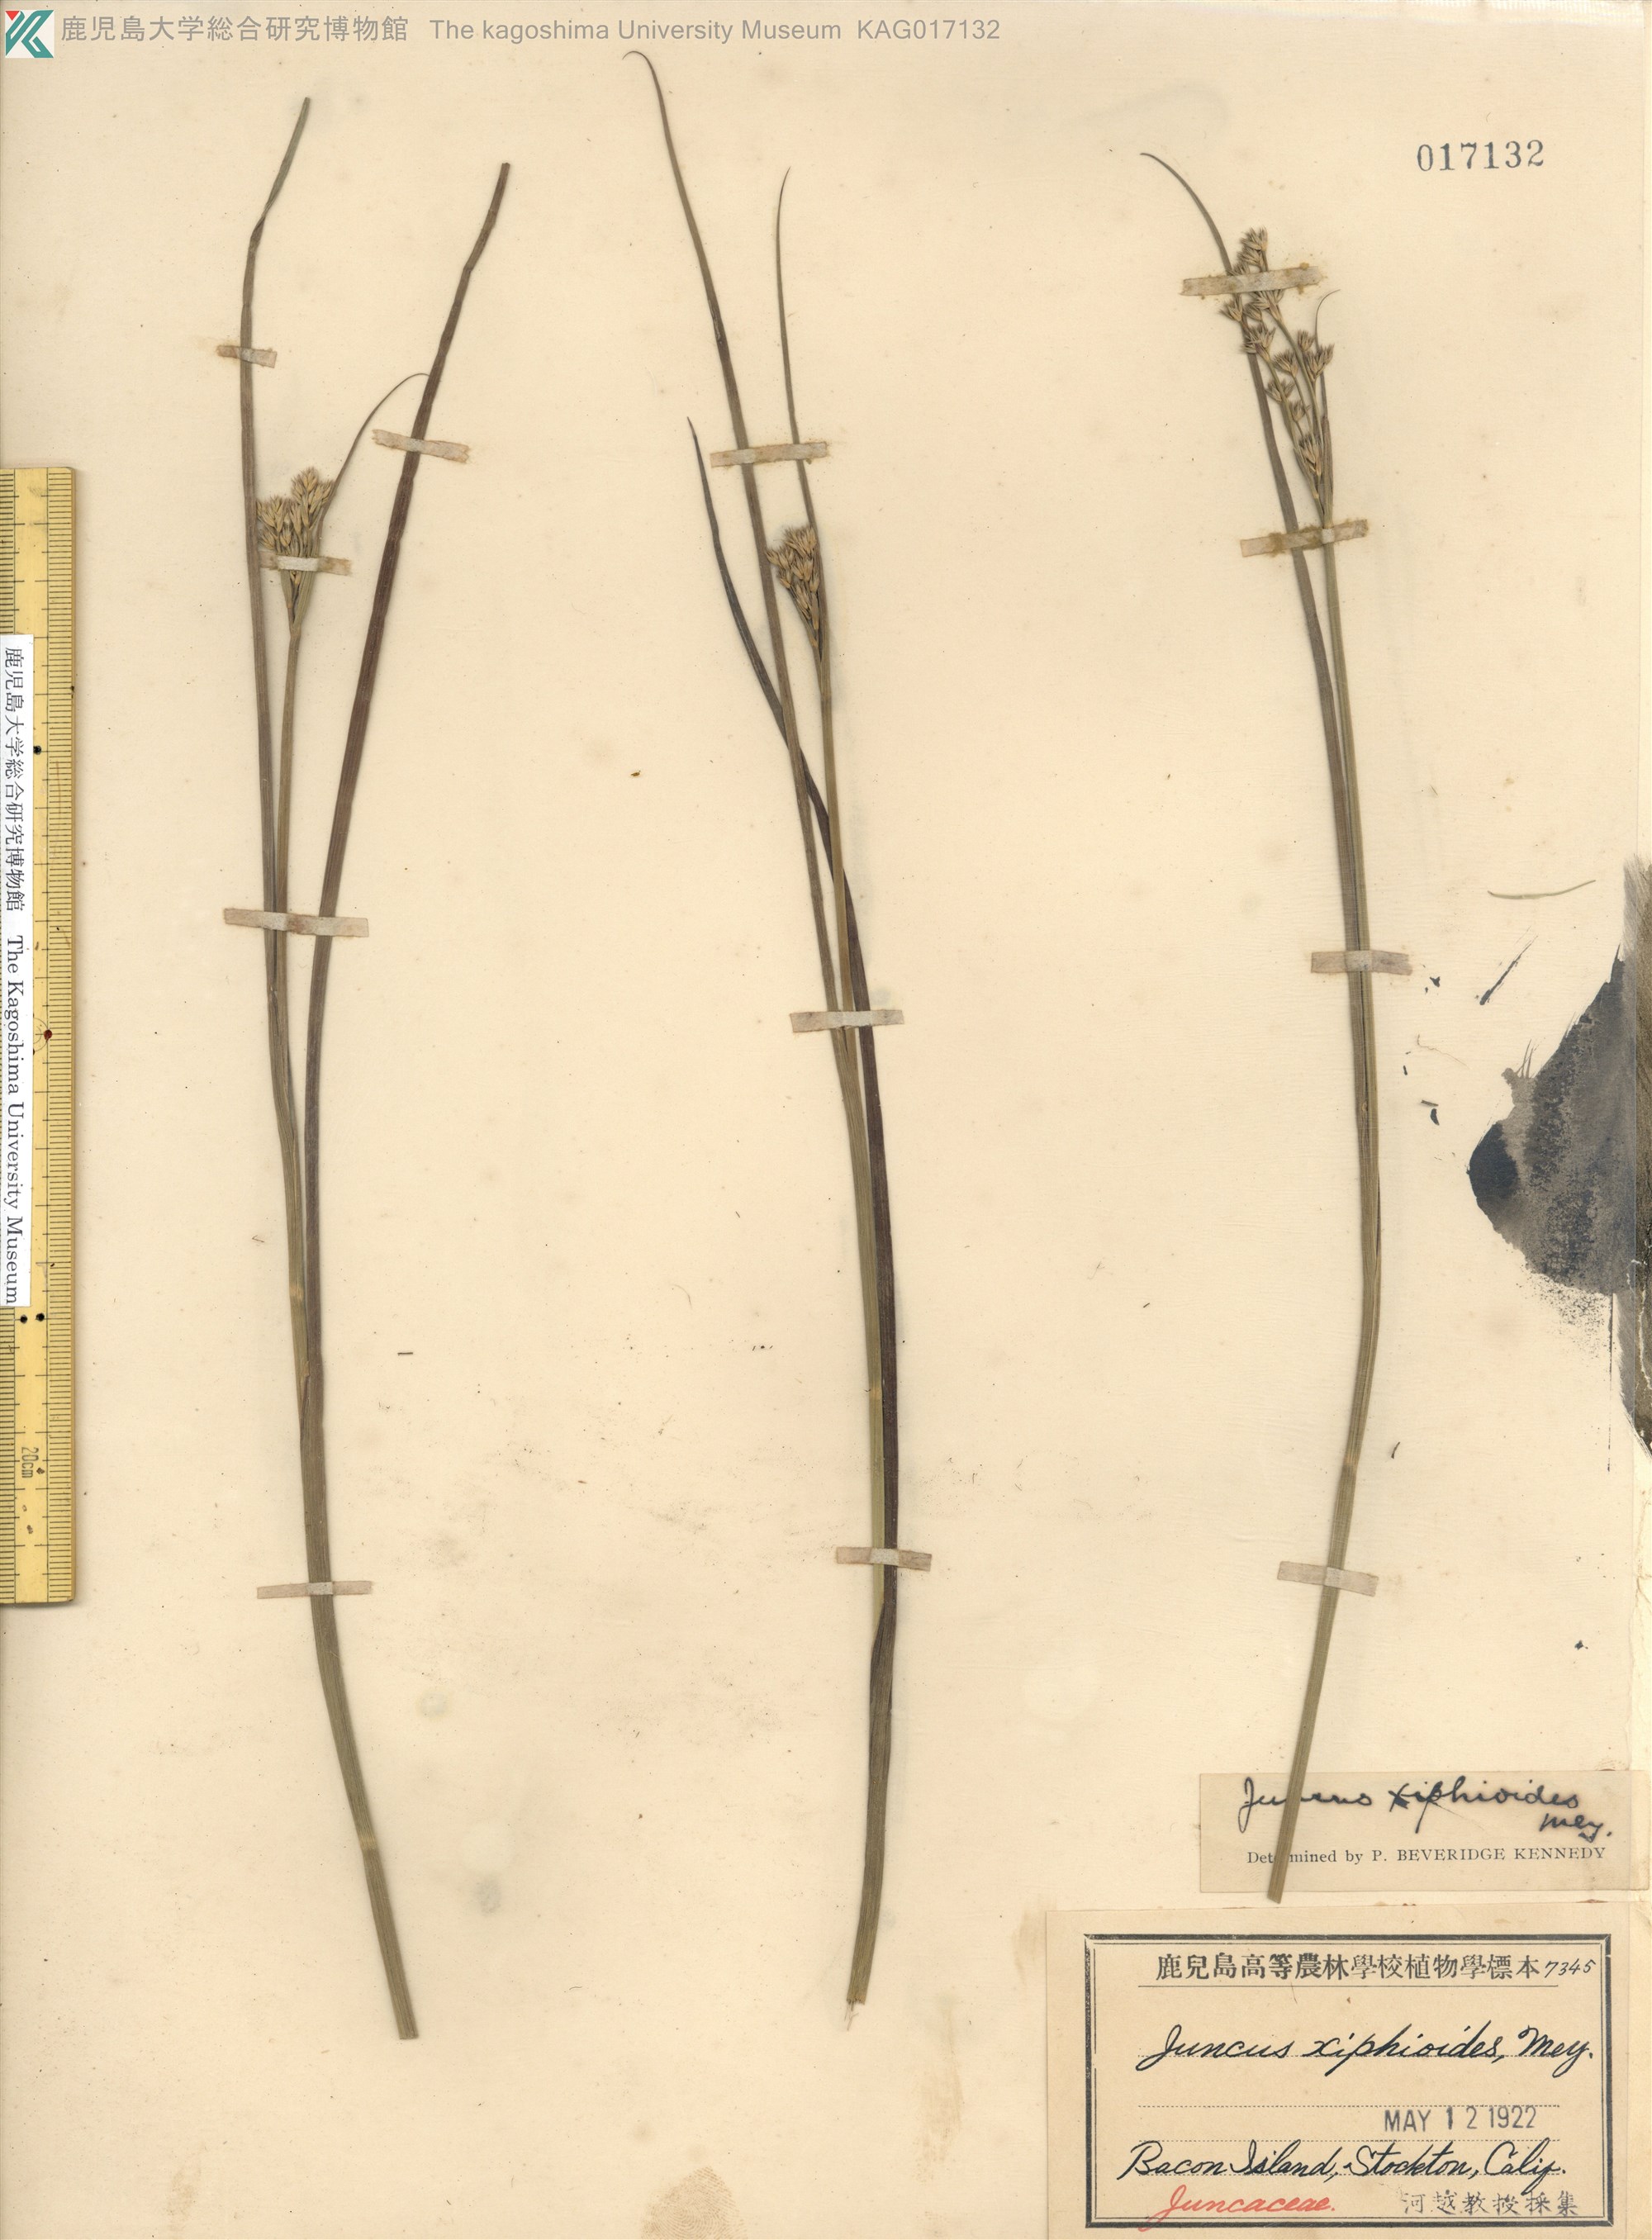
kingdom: Plantae
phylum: Tracheophyta
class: Liliopsida
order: Poales
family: Juncaceae
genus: Juncus
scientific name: Juncus xiphioides
